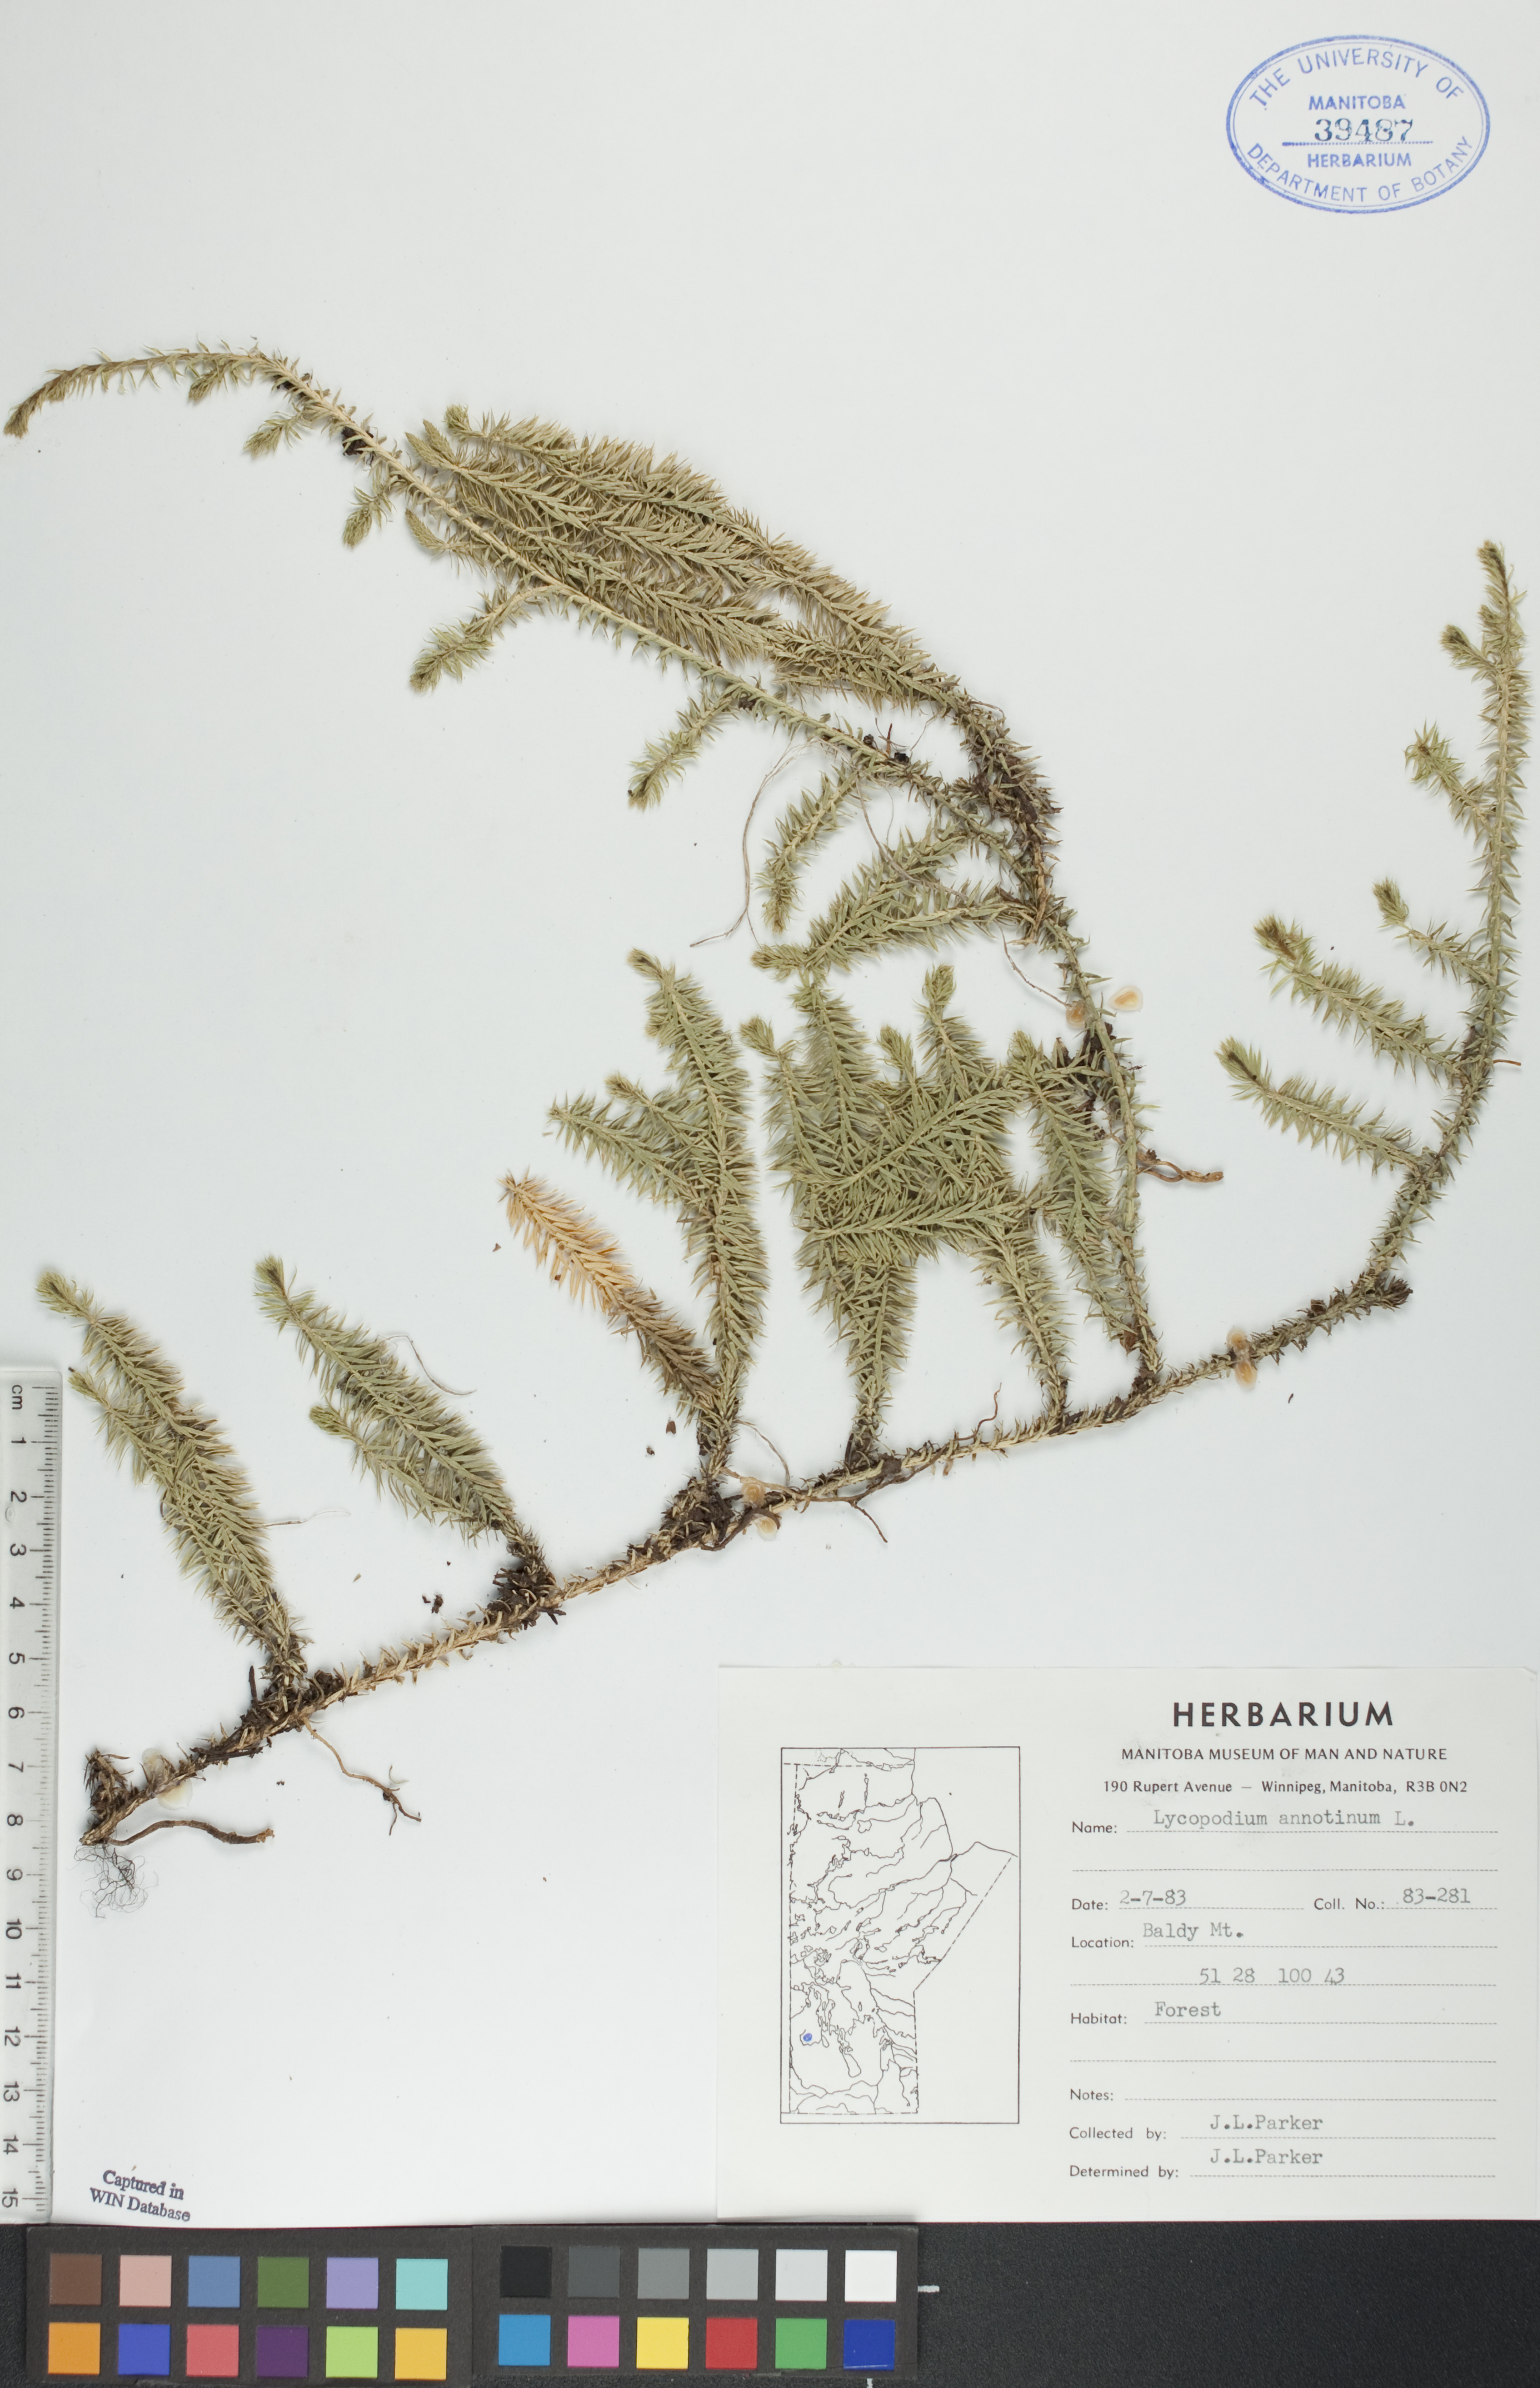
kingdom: Plantae
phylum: Tracheophyta
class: Lycopodiopsida
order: Lycopodiales
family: Lycopodiaceae
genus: Spinulum
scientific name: Spinulum annotinum
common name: Interrupted club-moss
